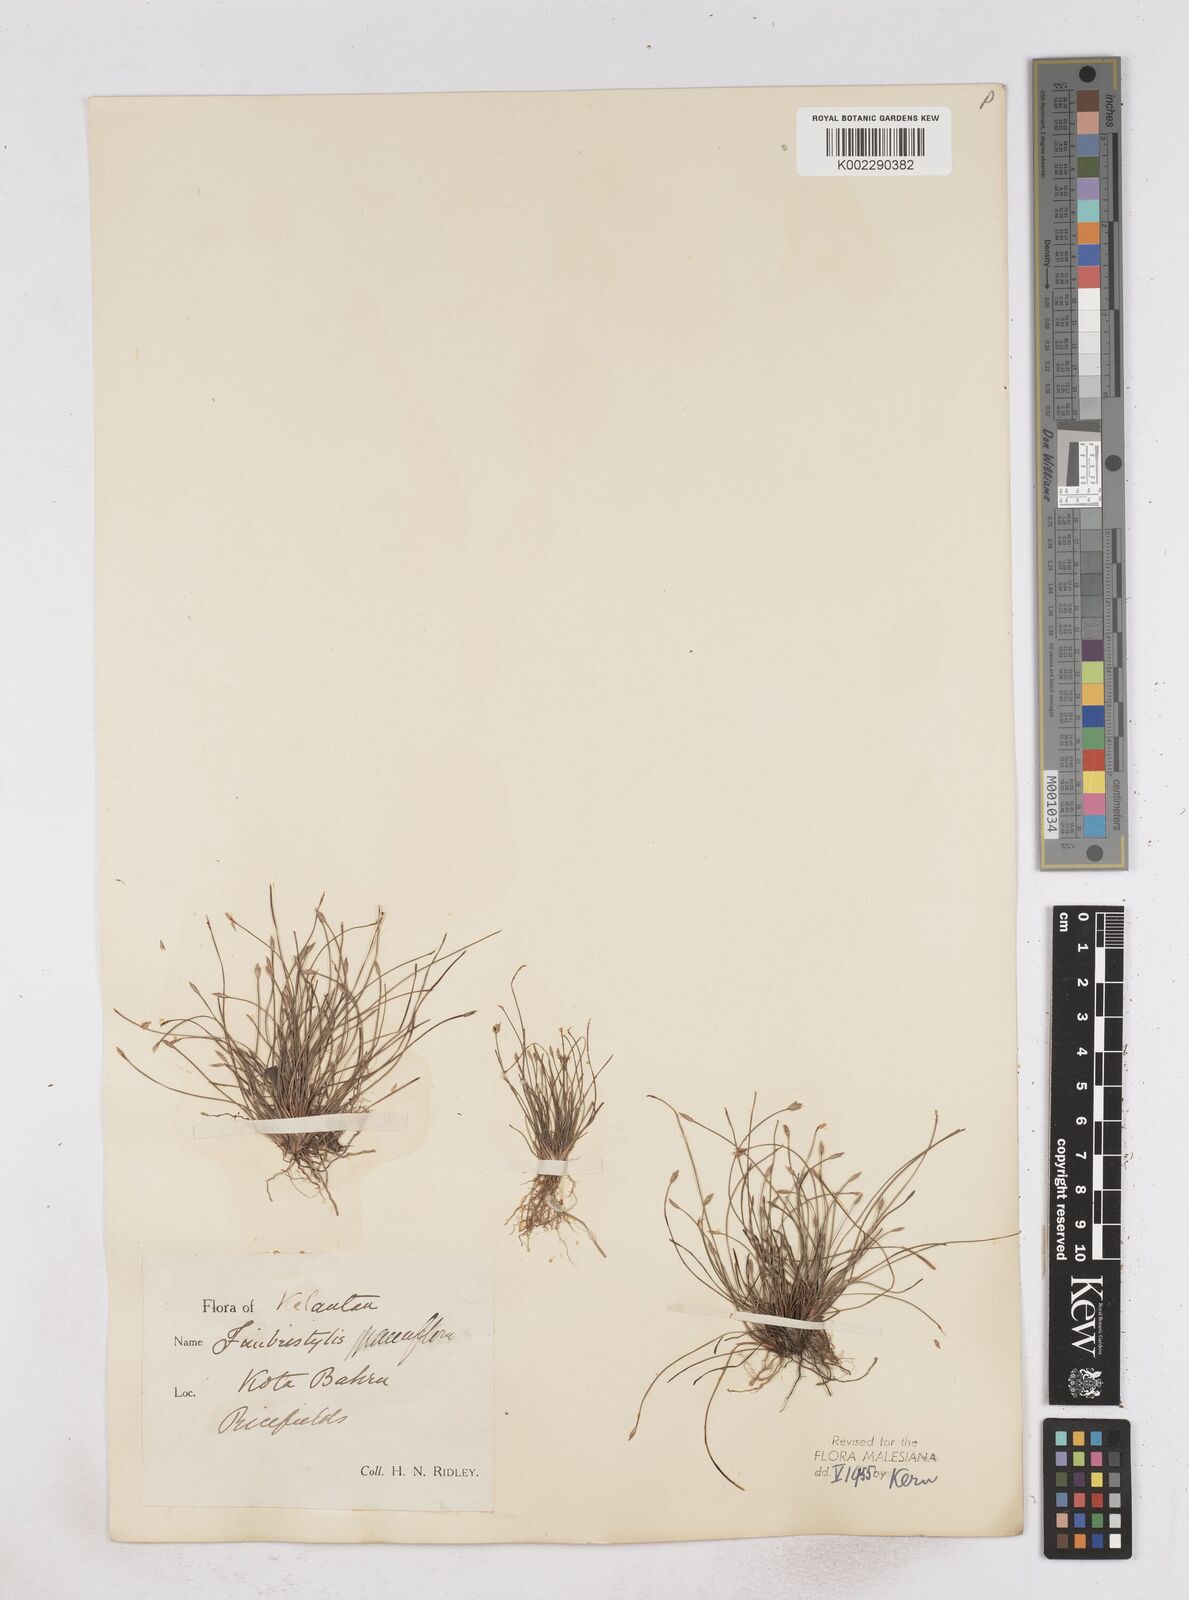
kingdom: Plantae
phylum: Tracheophyta
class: Liliopsida
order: Poales
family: Cyperaceae
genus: Fimbristylis
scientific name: Fimbristylis pauciflora
